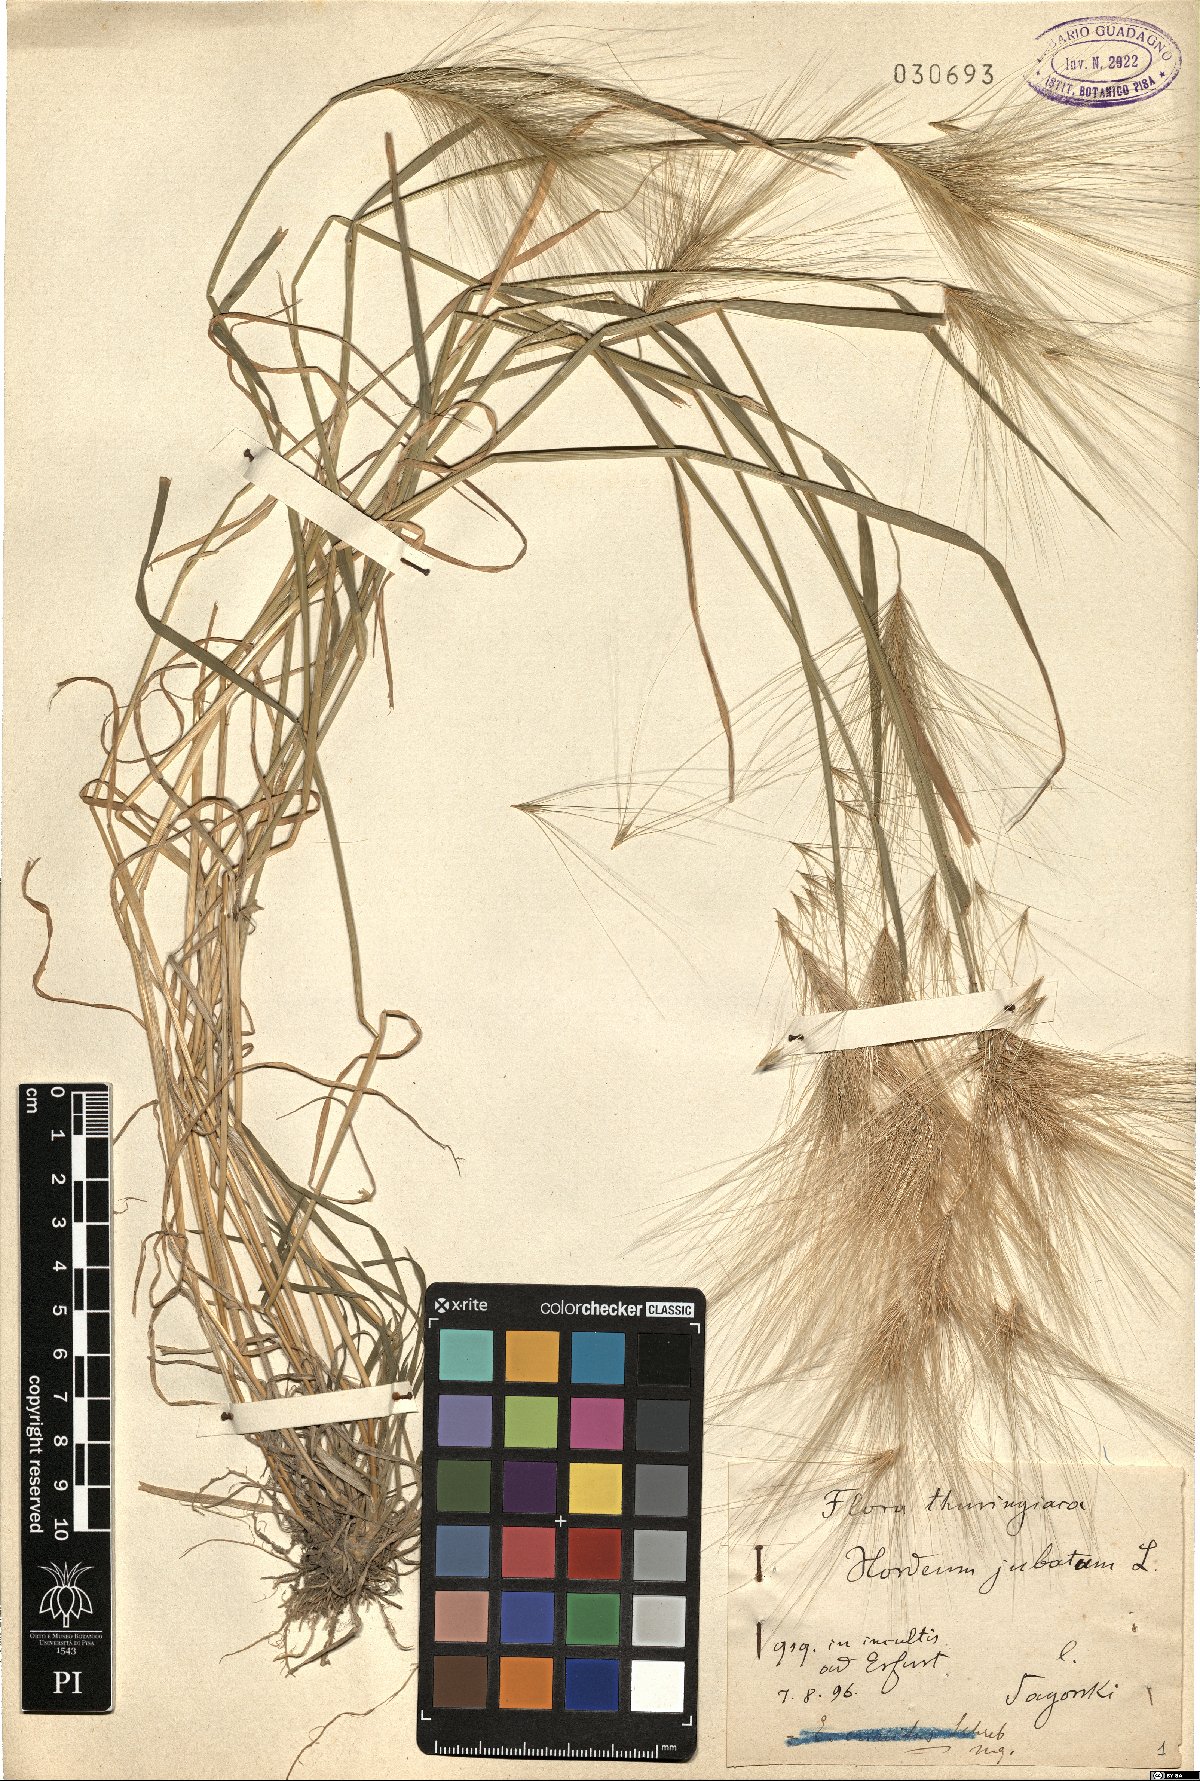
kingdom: Plantae
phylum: Tracheophyta
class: Liliopsida
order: Poales
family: Poaceae
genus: Hordeum
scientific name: Hordeum jubatum
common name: Foxtail barley
